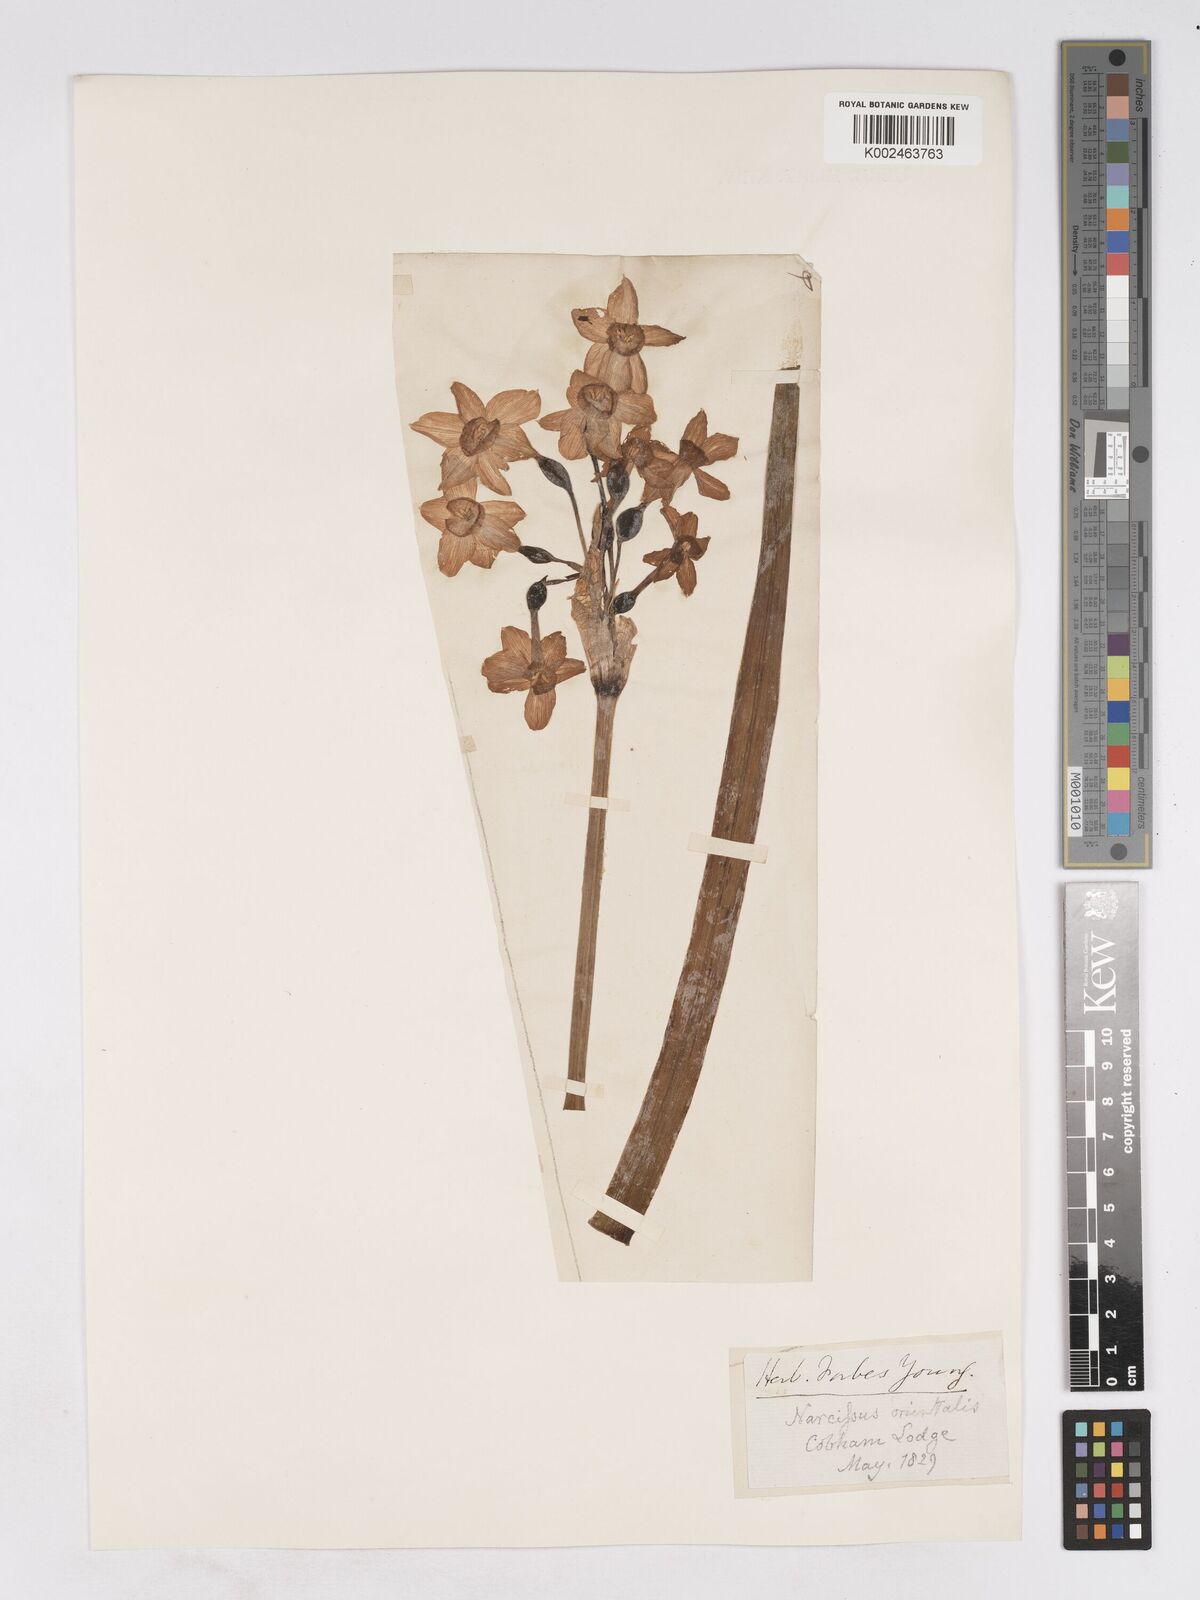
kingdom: Plantae
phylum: Tracheophyta
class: Liliopsida
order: Asparagales
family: Amaryllidaceae
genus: Narcissus
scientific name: Narcissus
